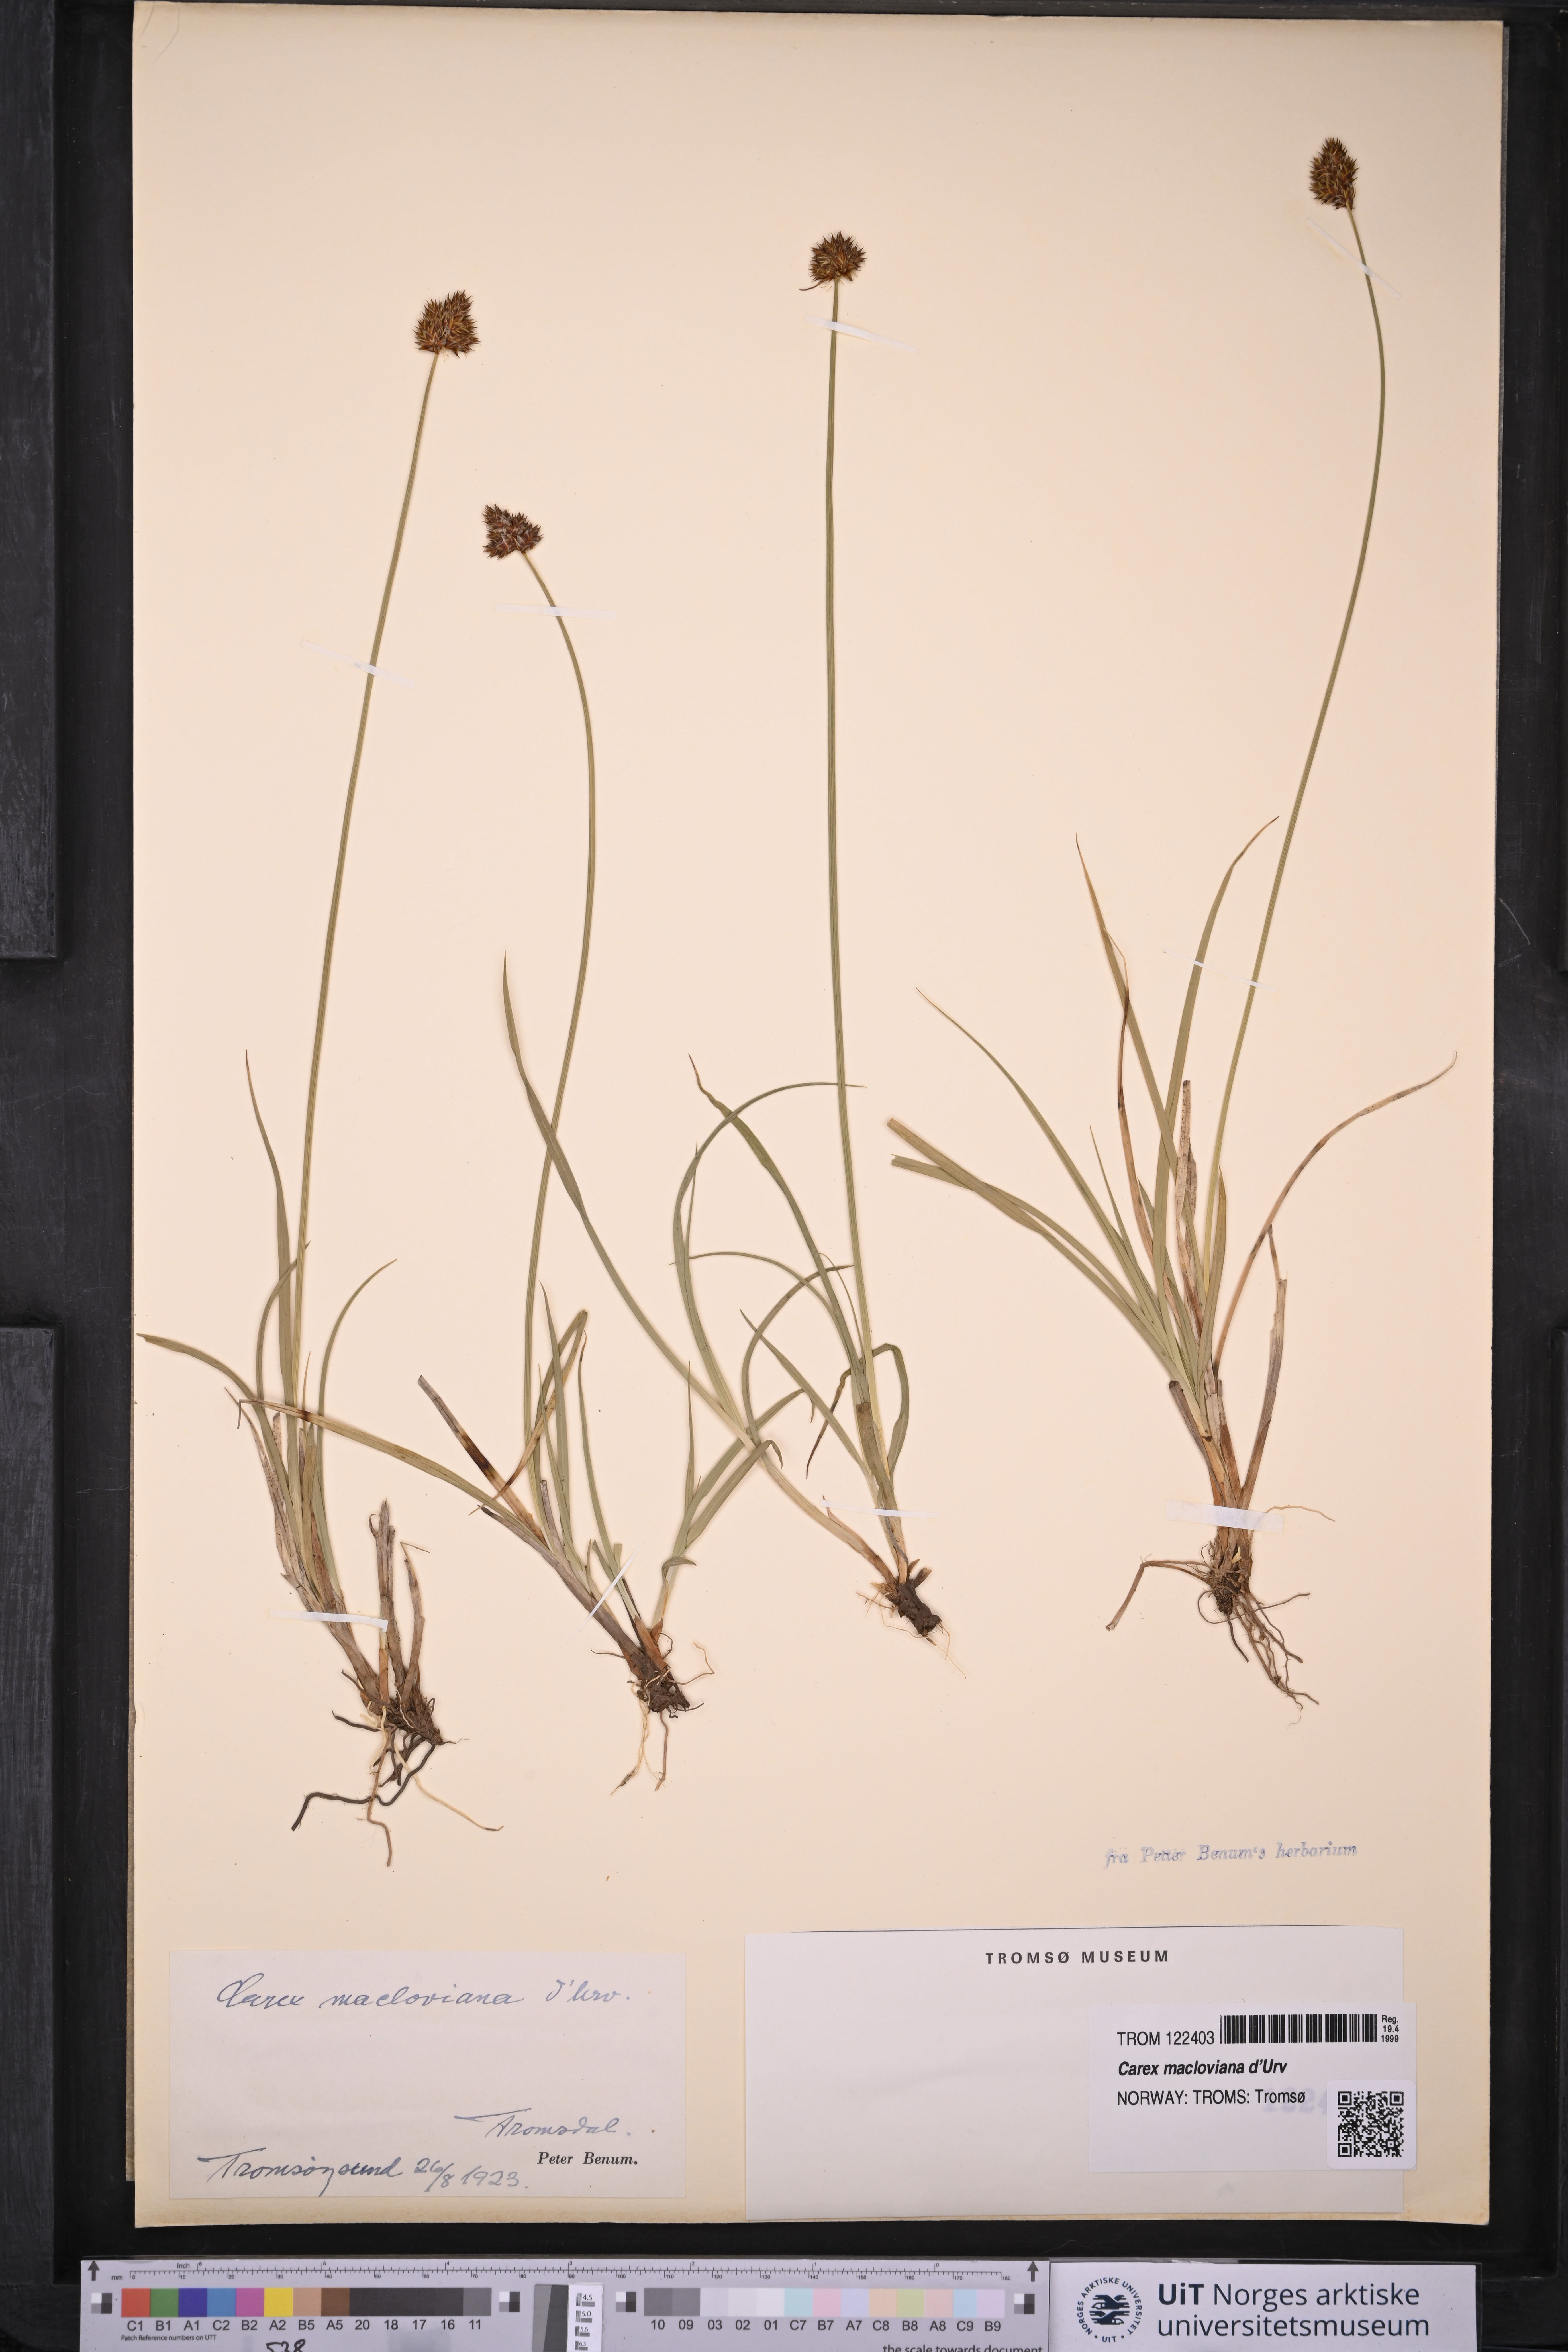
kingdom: Plantae
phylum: Tracheophyta
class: Liliopsida
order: Poales
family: Cyperaceae
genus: Carex
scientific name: Carex macloviana
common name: Falkland island sedge
